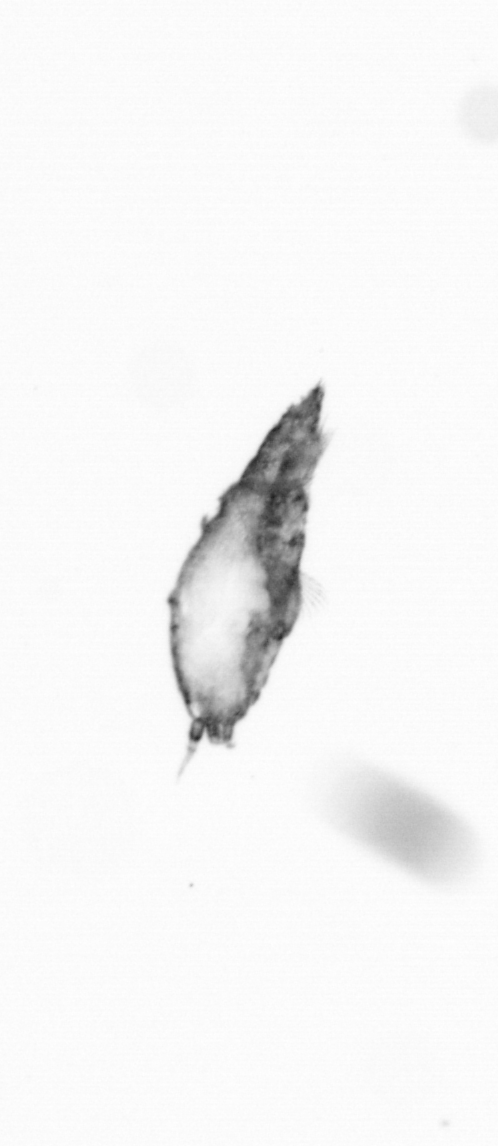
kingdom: Animalia
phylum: Arthropoda
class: Copepoda
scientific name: Copepoda
